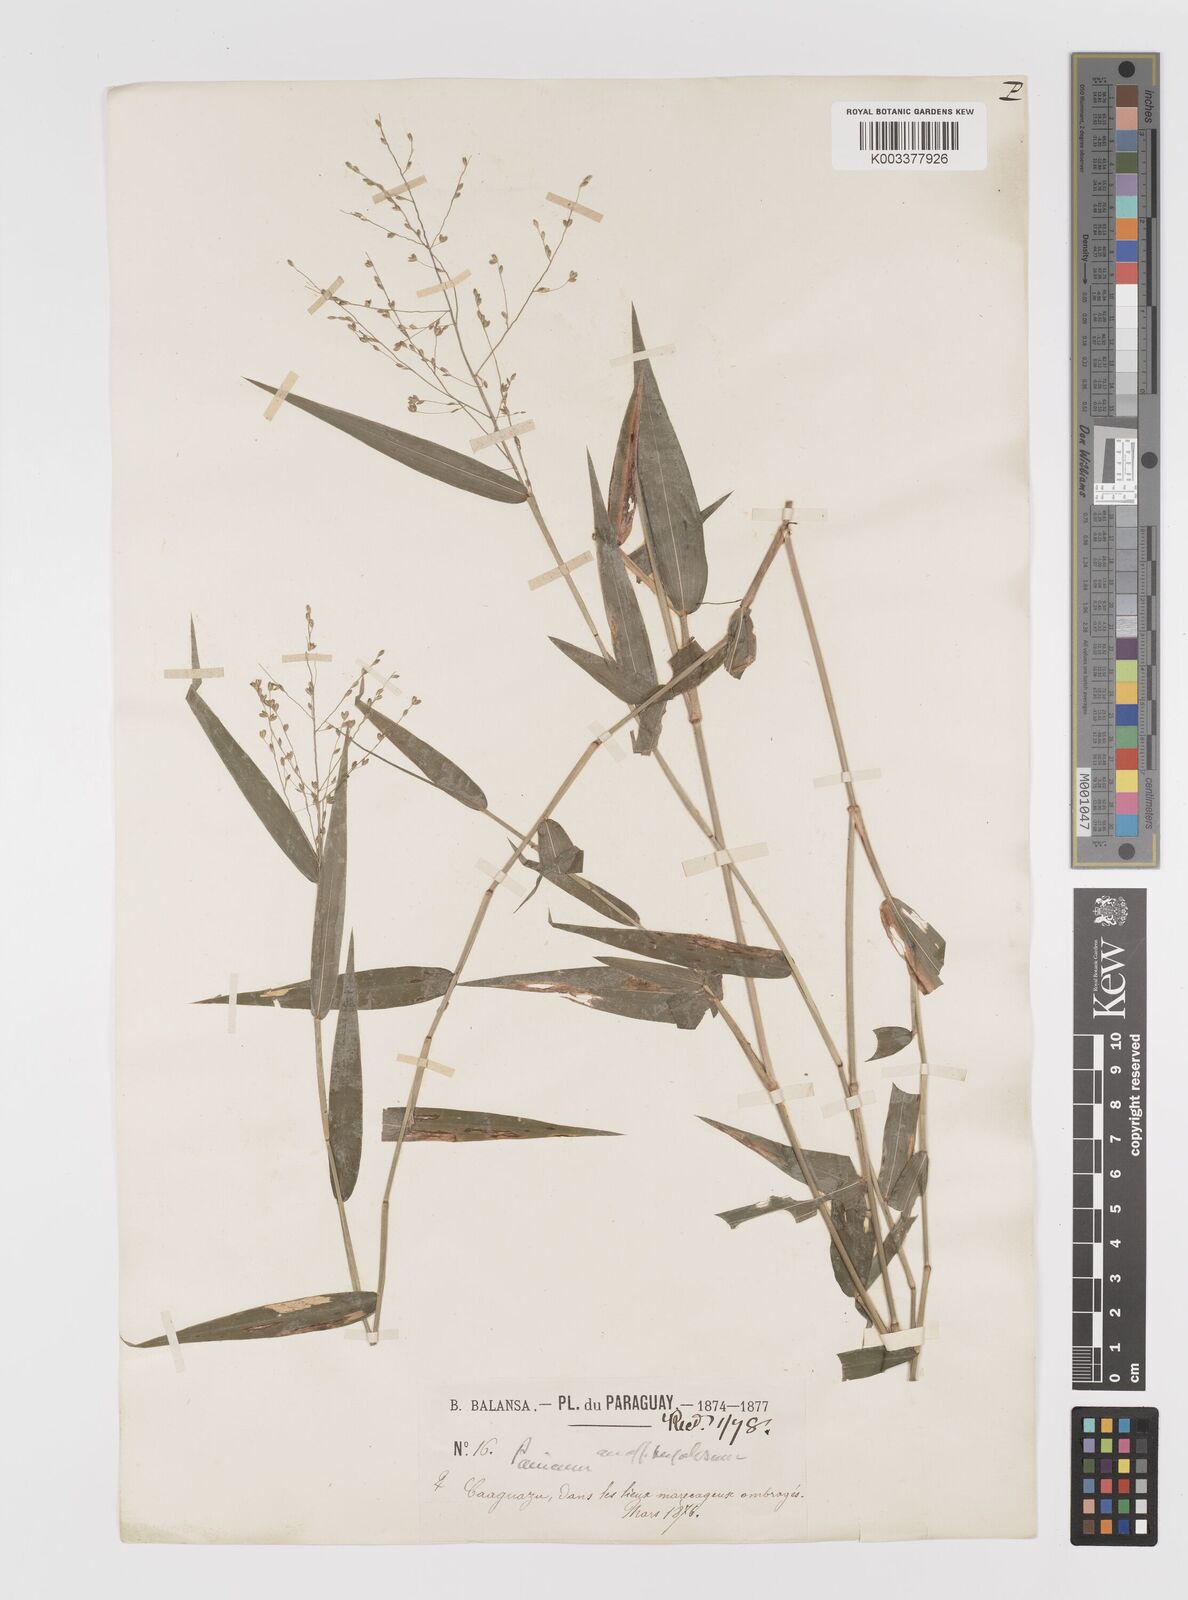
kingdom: Plantae
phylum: Tracheophyta
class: Liliopsida
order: Poales
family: Poaceae
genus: Parodiophyllochloa
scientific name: Parodiophyllochloa ovulifera
